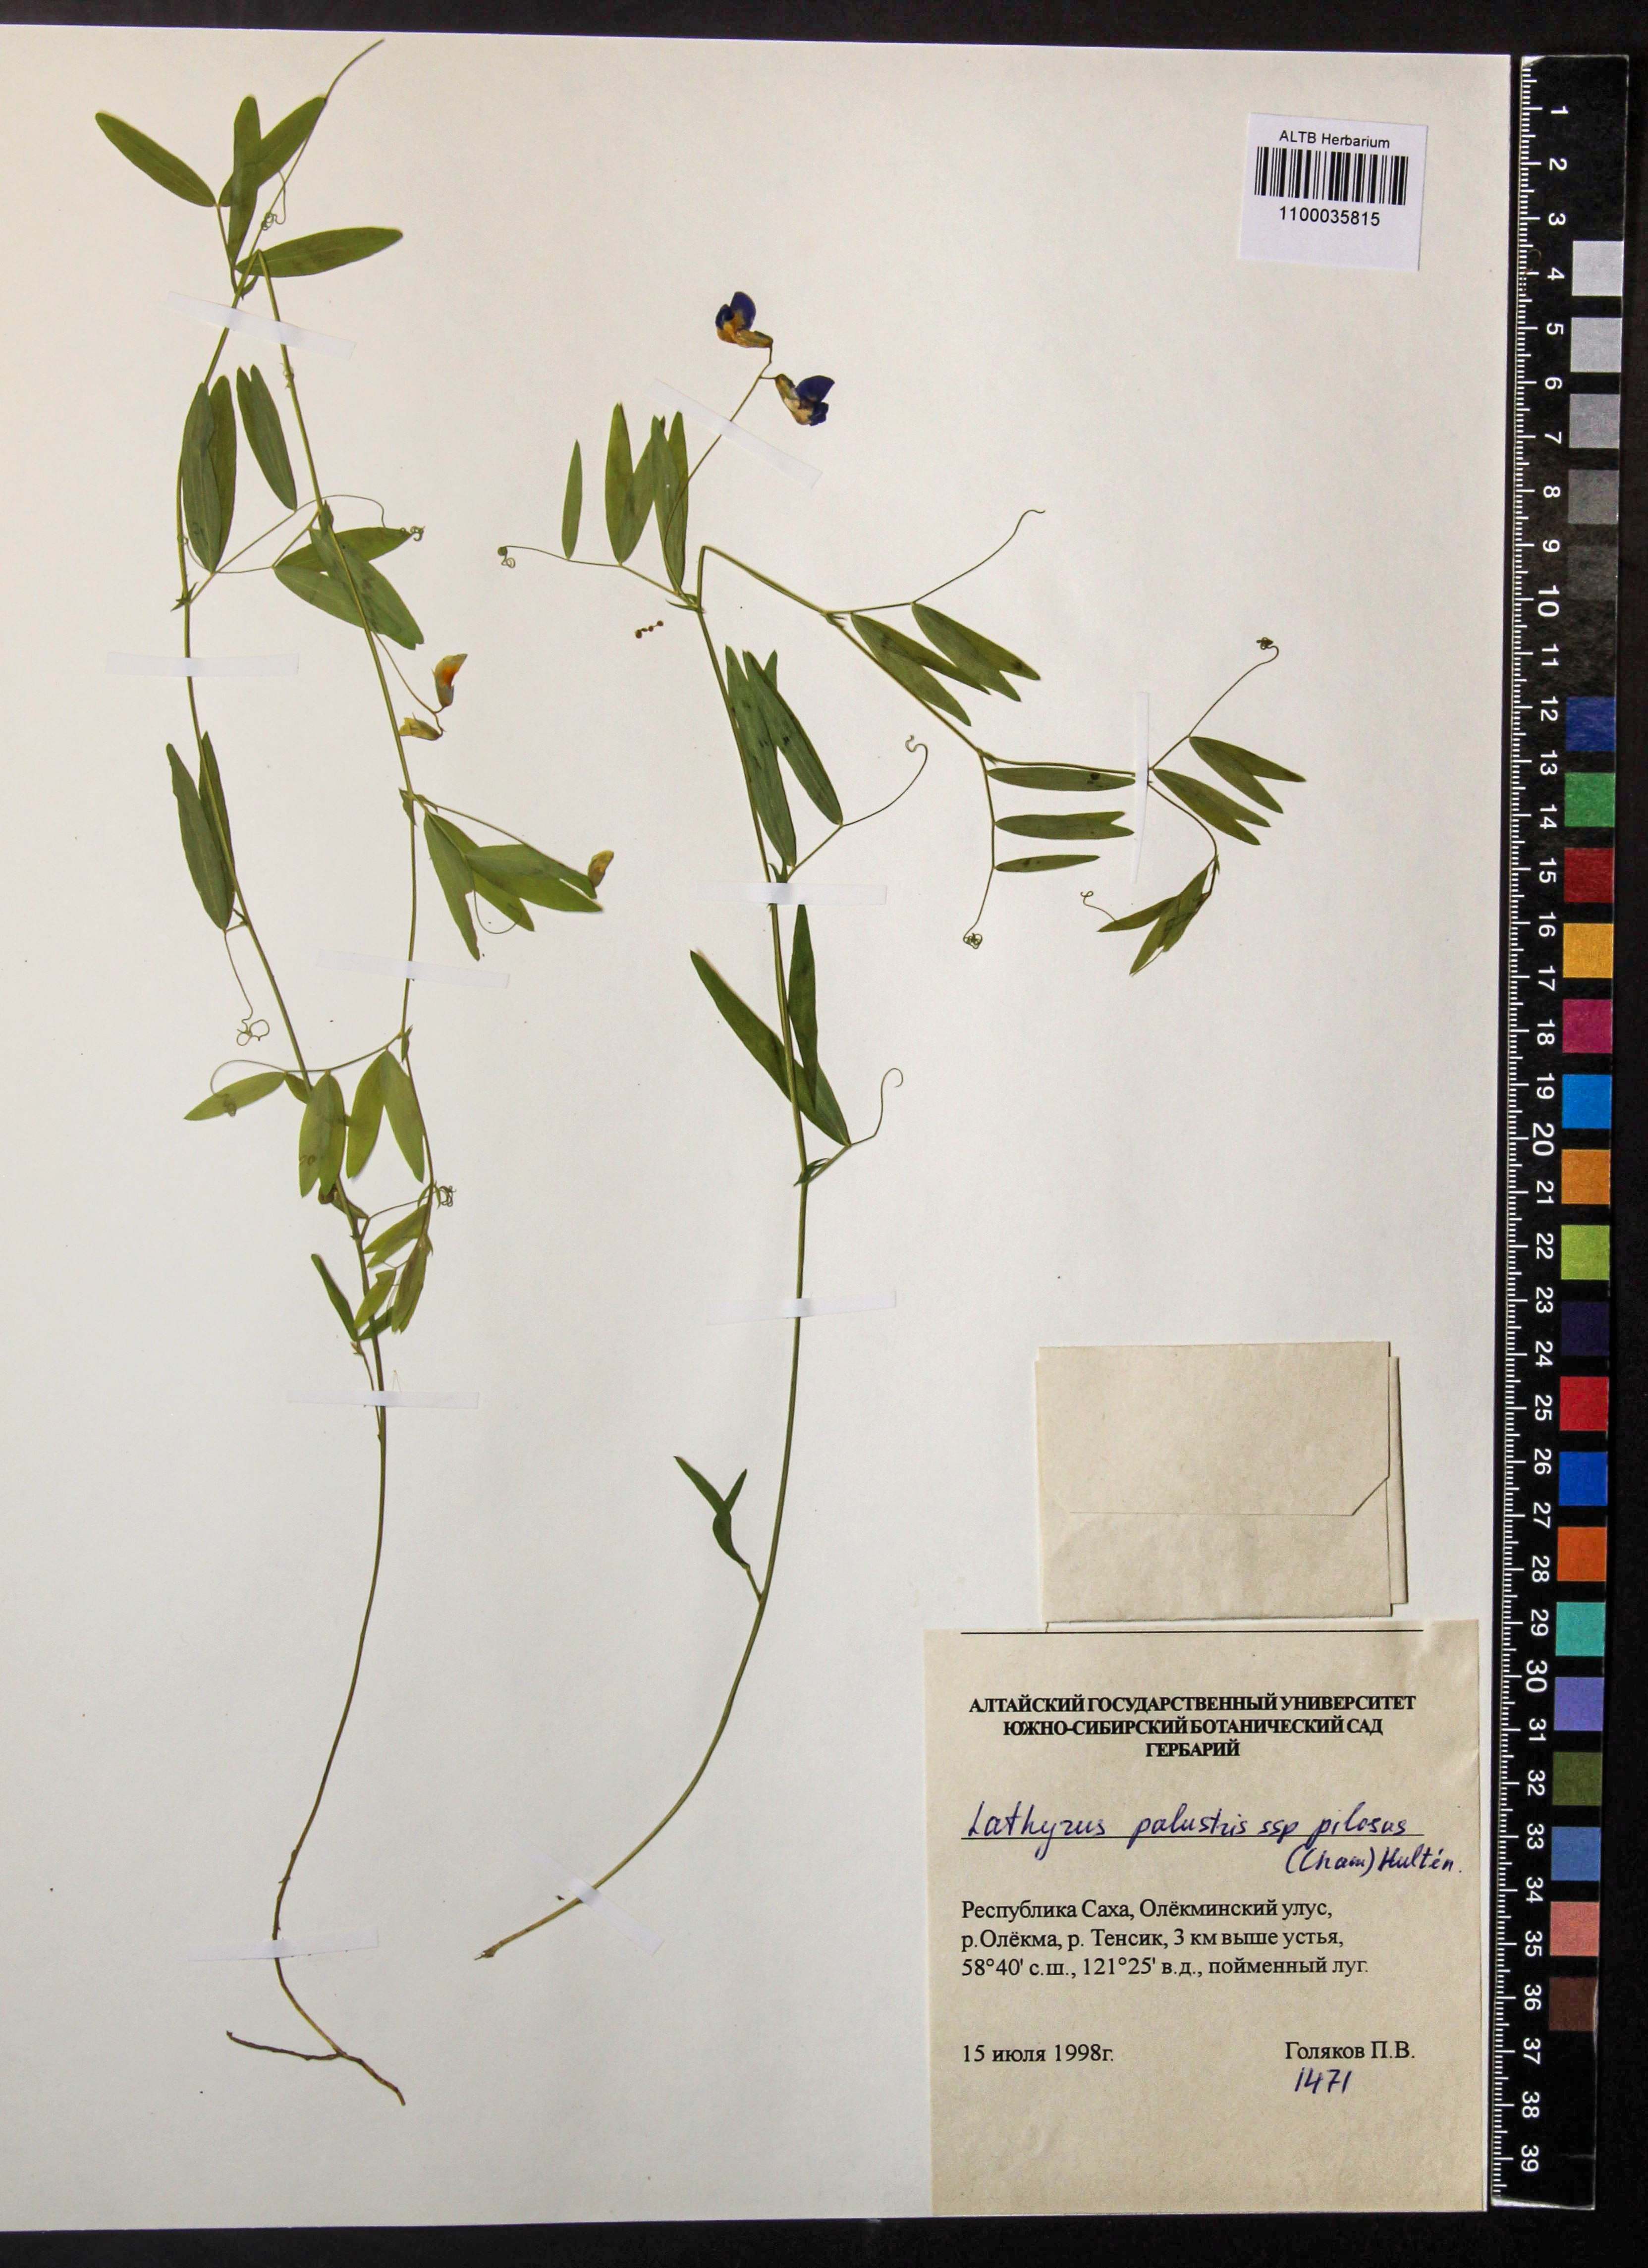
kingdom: Plantae
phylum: Tracheophyta
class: Magnoliopsida
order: Fabales
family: Fabaceae
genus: Lathyrus
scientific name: Lathyrus palustris
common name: Marsh pea
